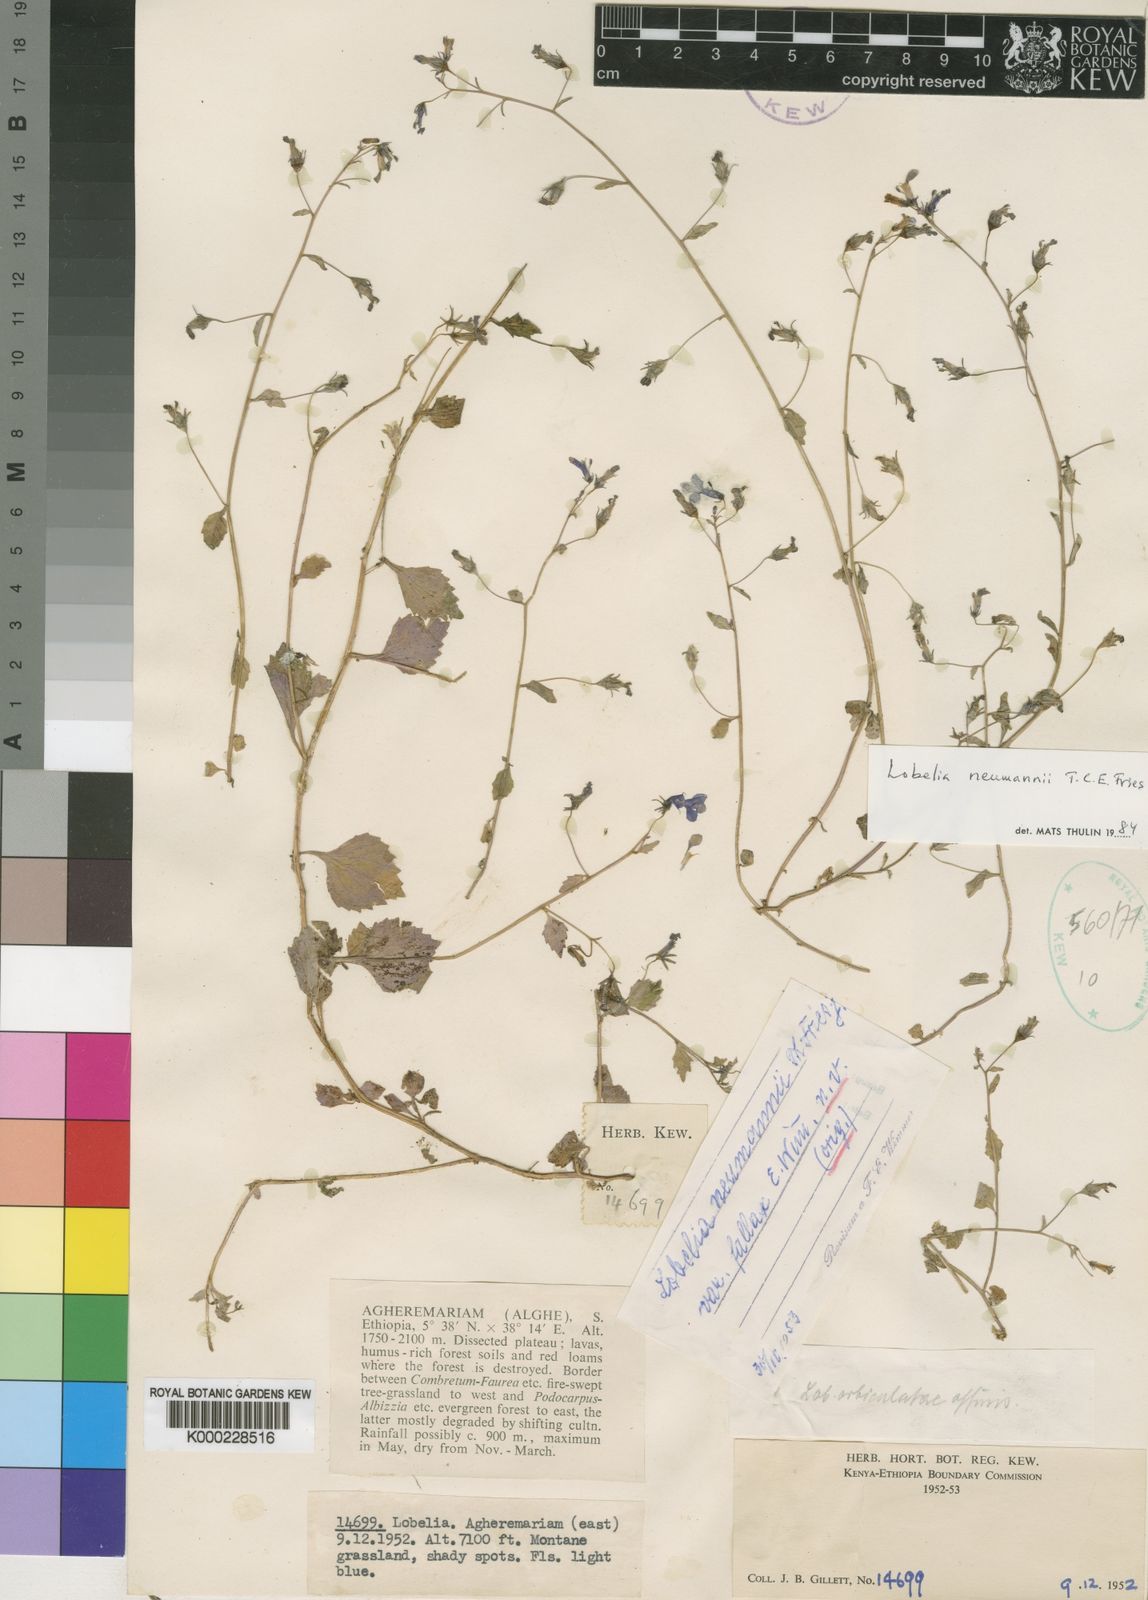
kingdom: Plantae
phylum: Tracheophyta
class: Magnoliopsida
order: Asterales
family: Campanulaceae
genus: Lobelia
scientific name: Lobelia neumannii
